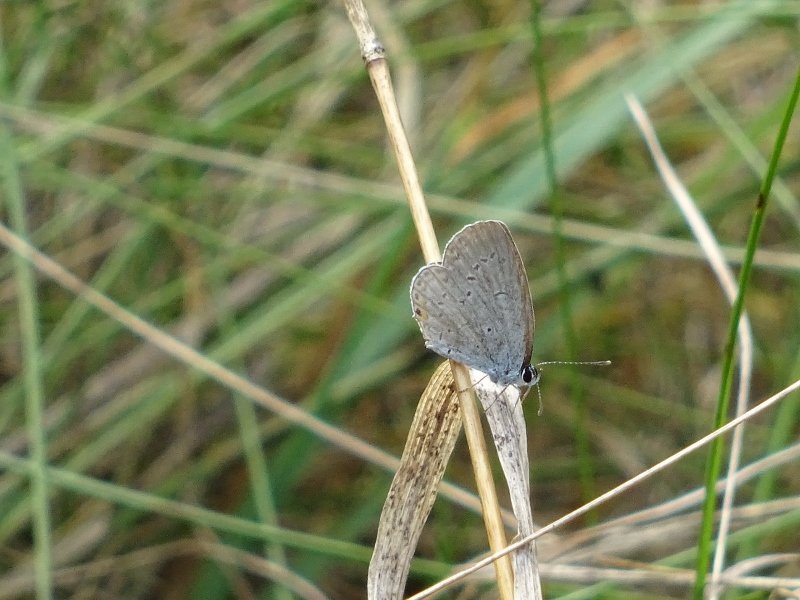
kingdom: Animalia
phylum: Arthropoda
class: Insecta
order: Lepidoptera
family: Lycaenidae
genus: Elkalyce
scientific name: Elkalyce comyntas
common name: Eastern Tailed-Blue
